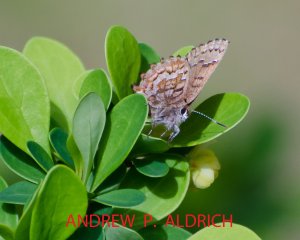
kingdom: Animalia
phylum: Arthropoda
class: Insecta
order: Lepidoptera
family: Lycaenidae
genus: Incisalia
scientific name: Incisalia niphon
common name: Eastern Pine Elfin
